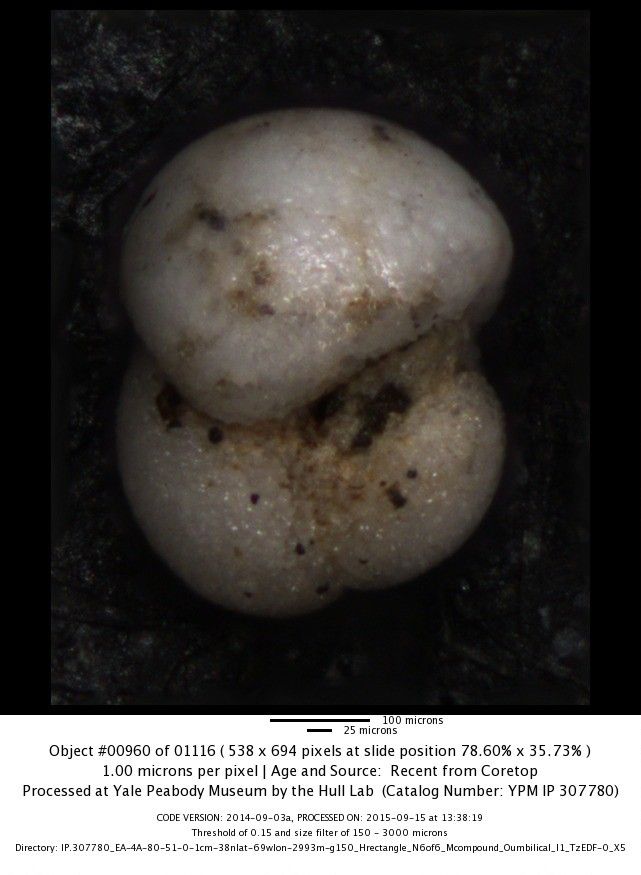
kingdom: Chromista
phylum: Foraminifera
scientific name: Foraminifera
